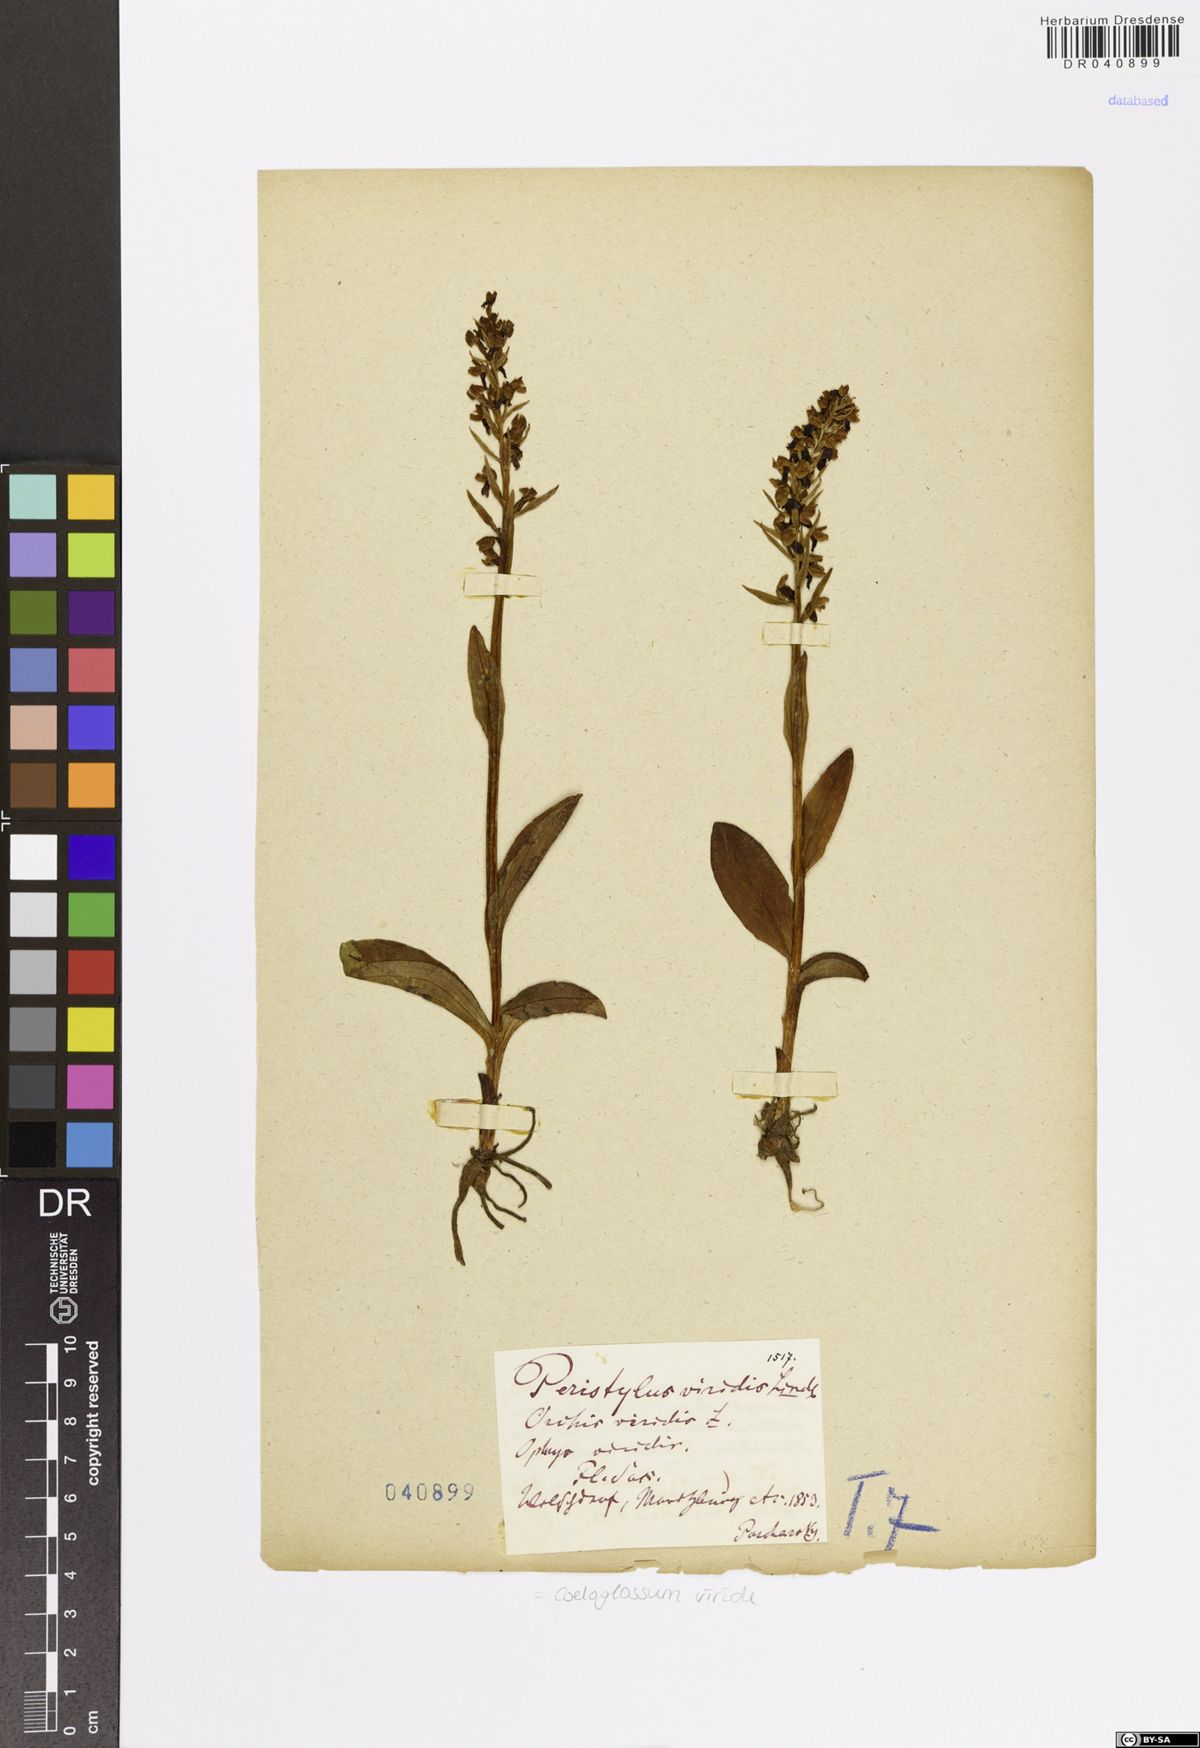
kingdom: Plantae
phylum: Tracheophyta
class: Liliopsida
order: Asparagales
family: Orchidaceae
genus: Dactylorhiza
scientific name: Dactylorhiza viridis
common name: Longbract frog orchid
